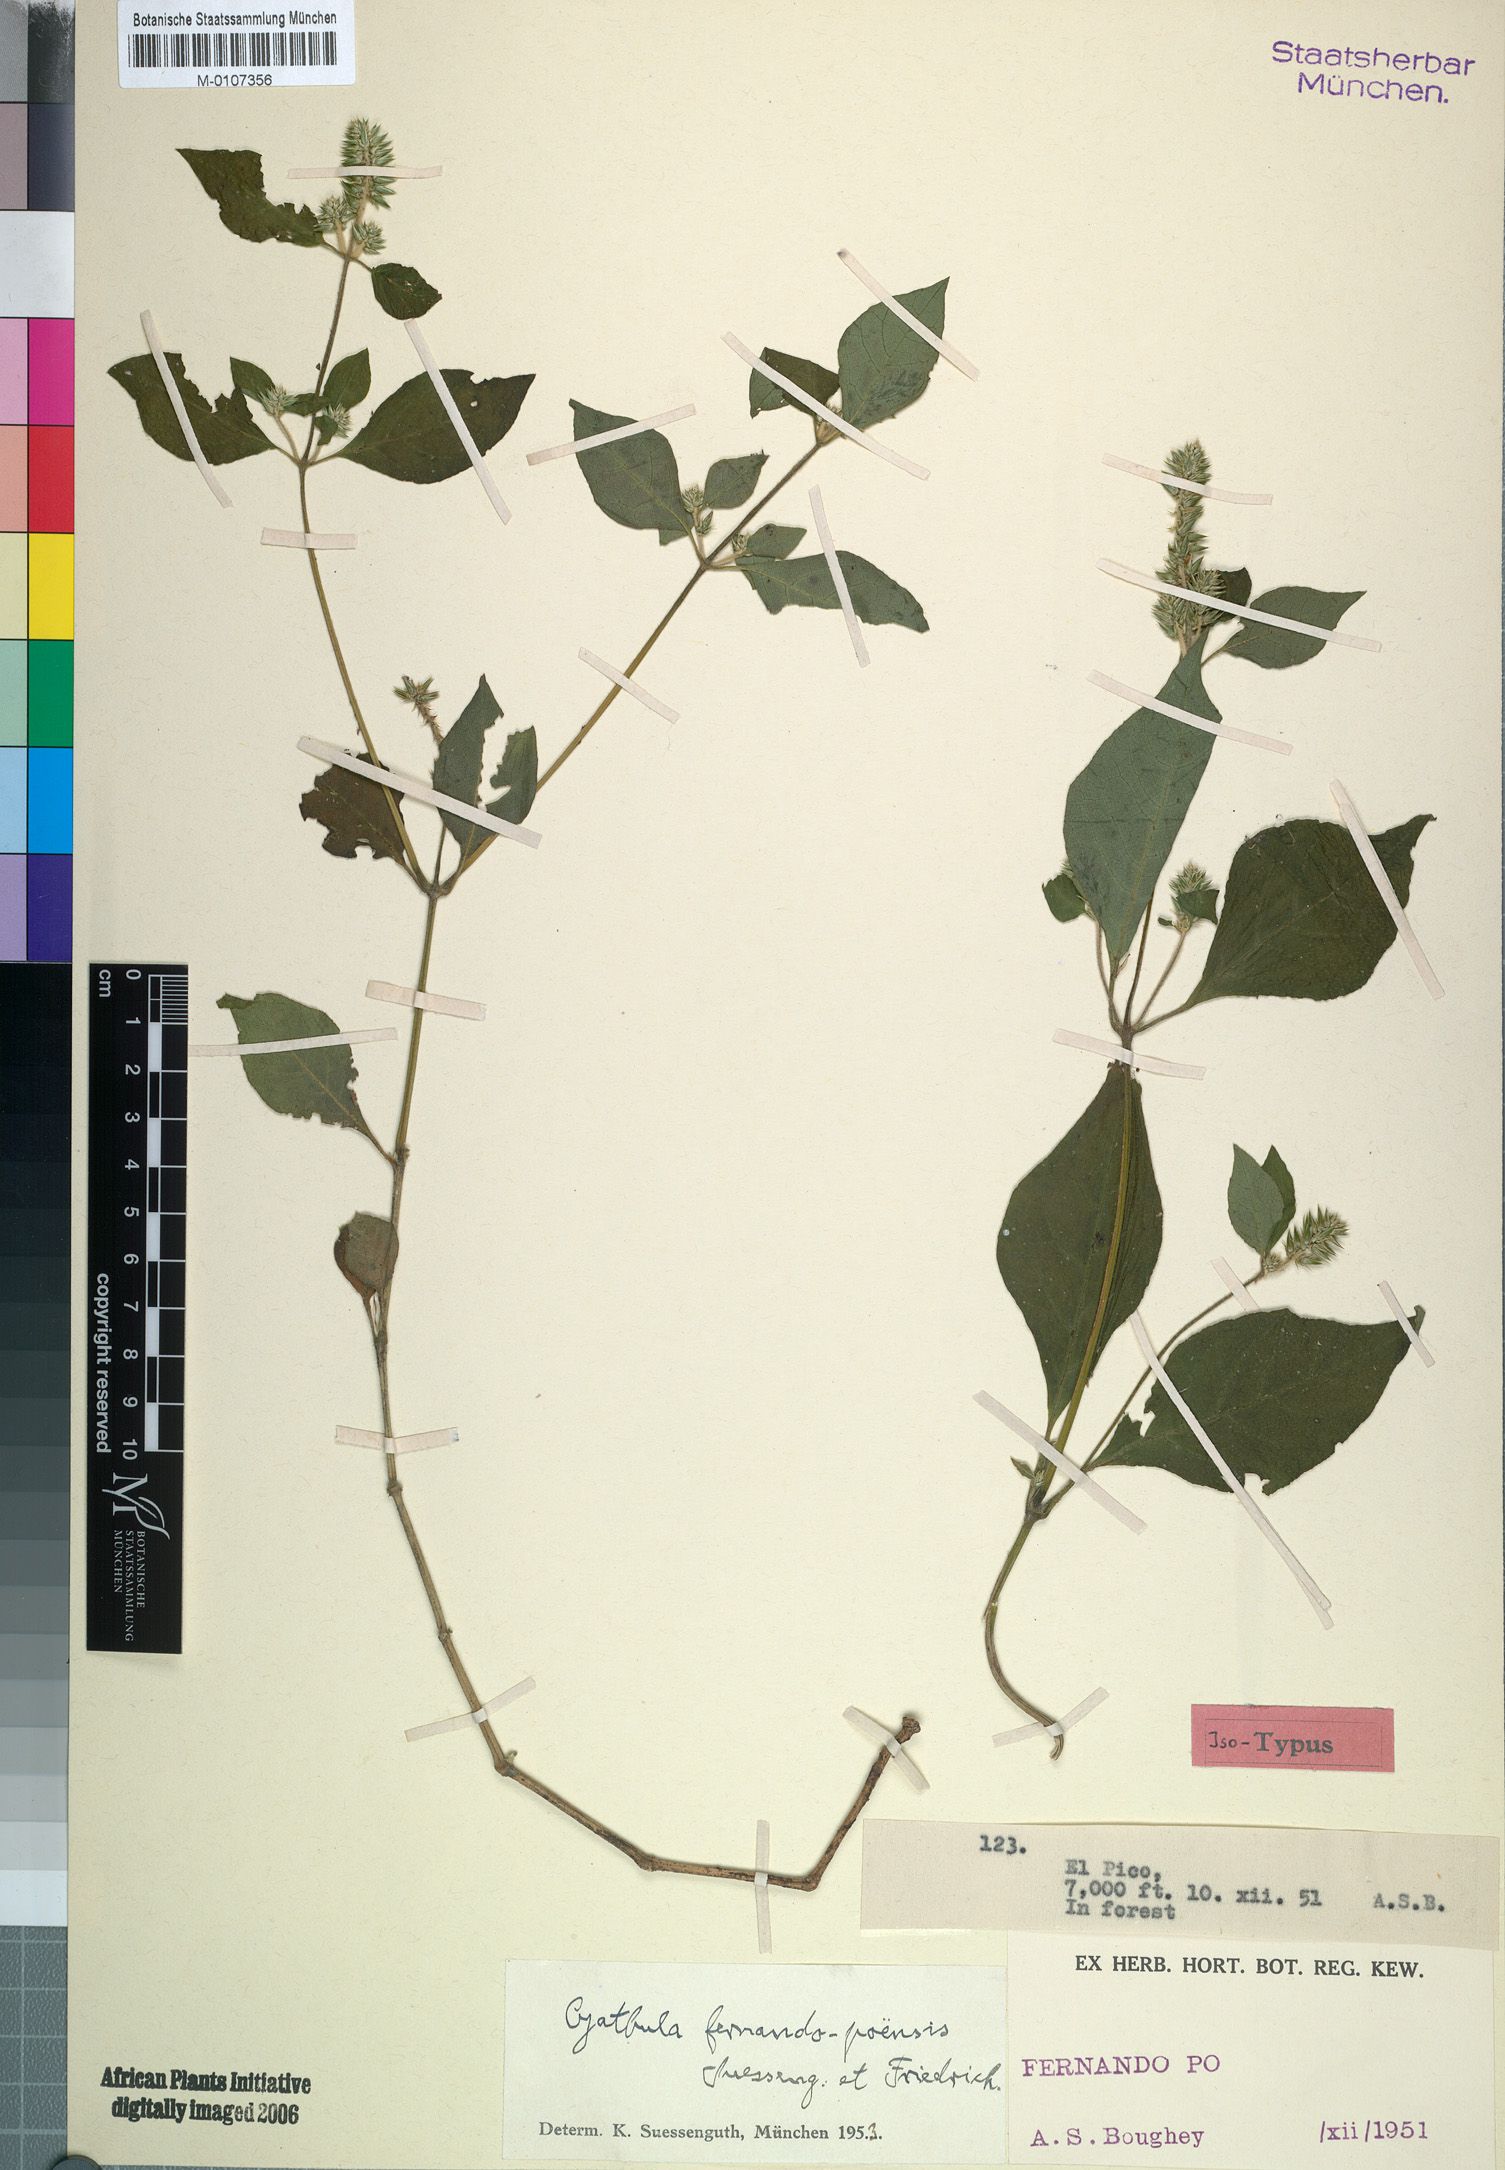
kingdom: Plantae
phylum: Tracheophyta
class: Magnoliopsida
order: Caryophyllales
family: Amaranthaceae
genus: Cyathula
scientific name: Cyathula fernando-poensis
